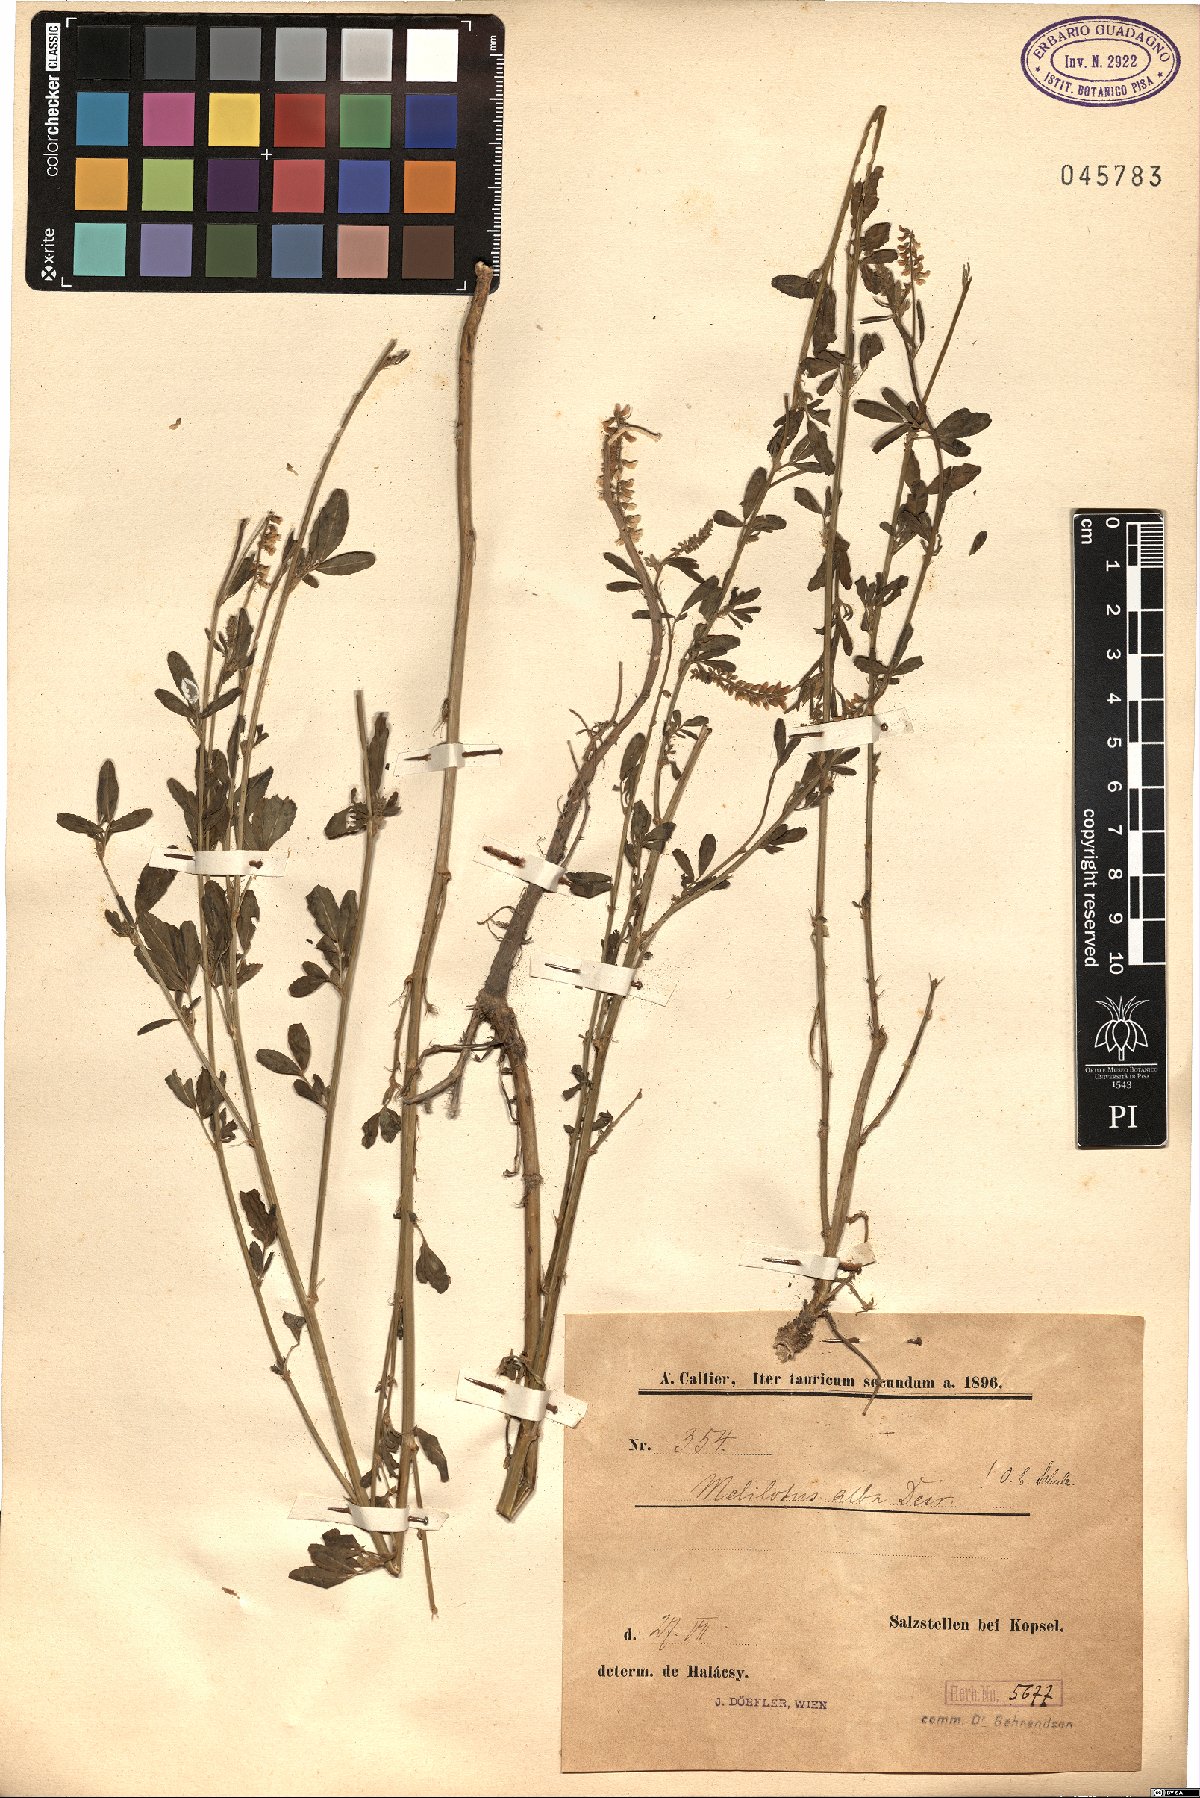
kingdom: Plantae
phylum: Tracheophyta
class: Magnoliopsida
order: Fabales
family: Fabaceae
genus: Melilotus
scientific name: Melilotus albus
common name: White melilot
